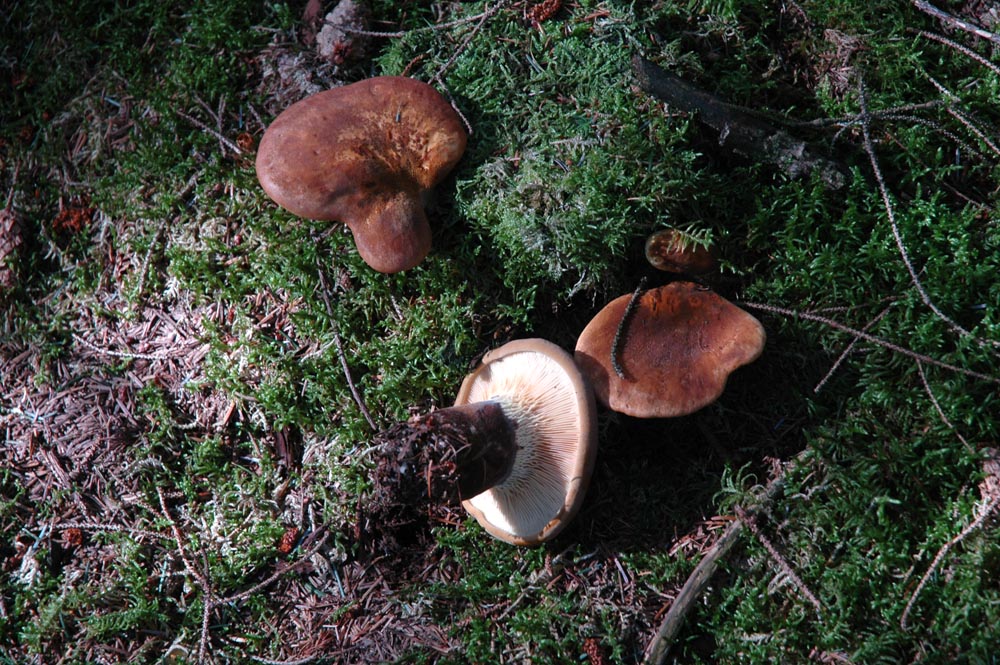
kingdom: Fungi
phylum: Basidiomycota
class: Agaricomycetes
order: Boletales
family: Tapinellaceae
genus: Tapinella
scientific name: Tapinella atrotomentosa
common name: sortfiltet viftesvamp
